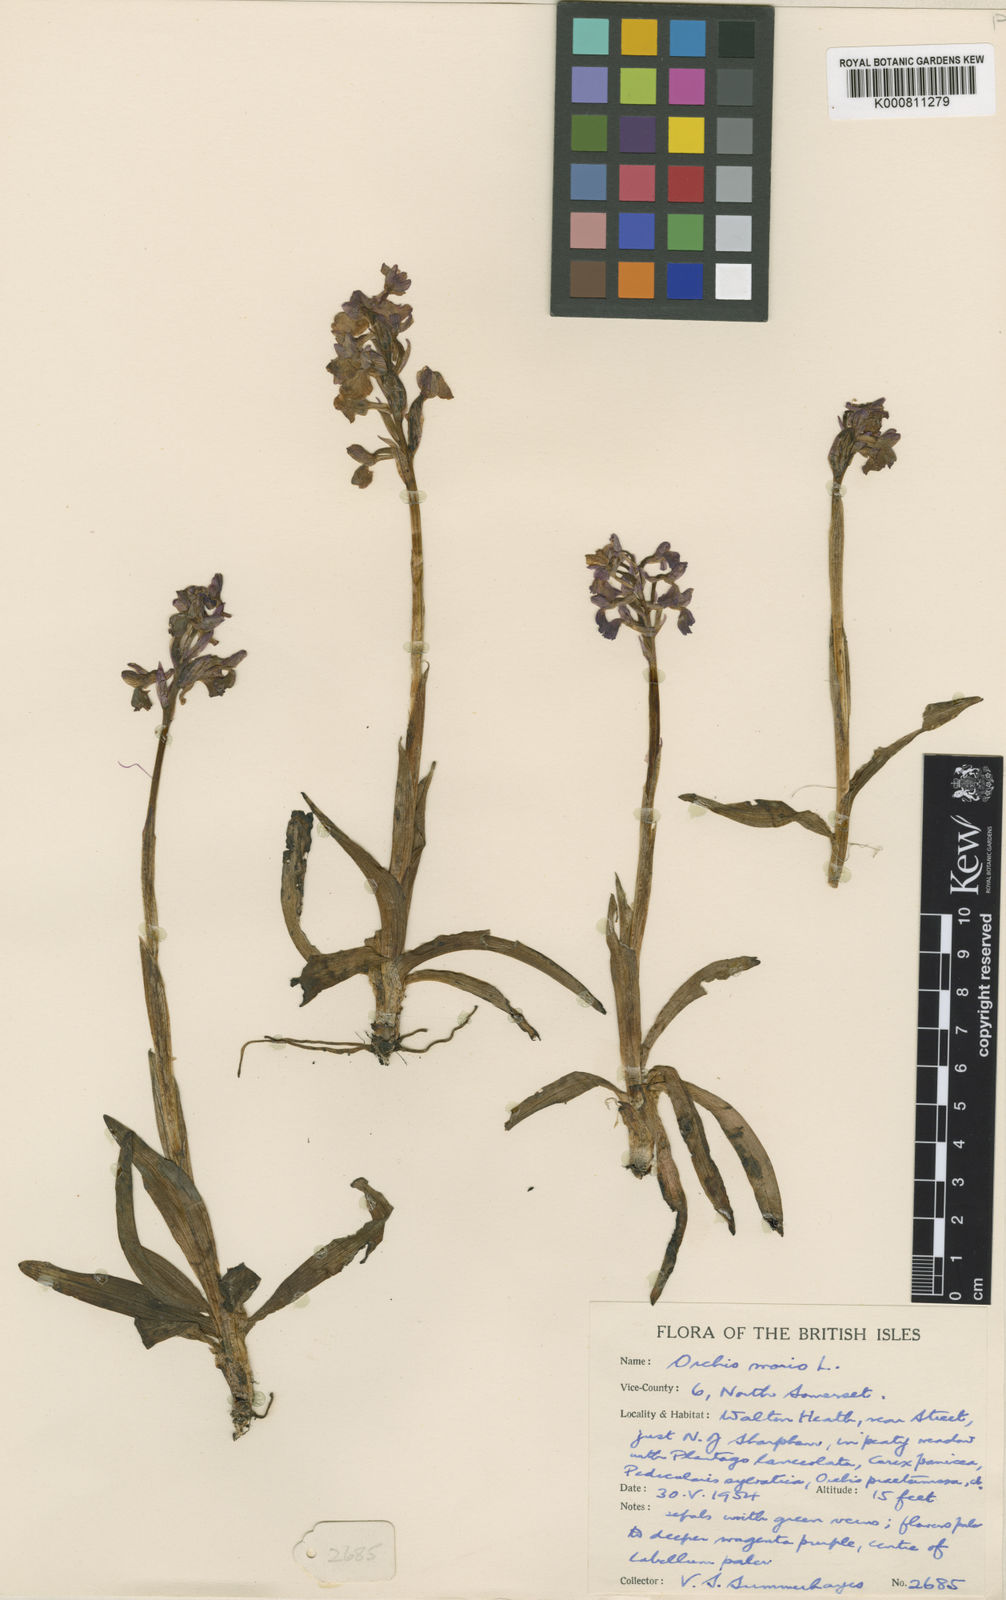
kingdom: Plantae
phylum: Tracheophyta
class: Liliopsida
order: Asparagales
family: Orchidaceae
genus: Anacamptis
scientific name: Anacamptis morio
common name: Green-winged orchid
